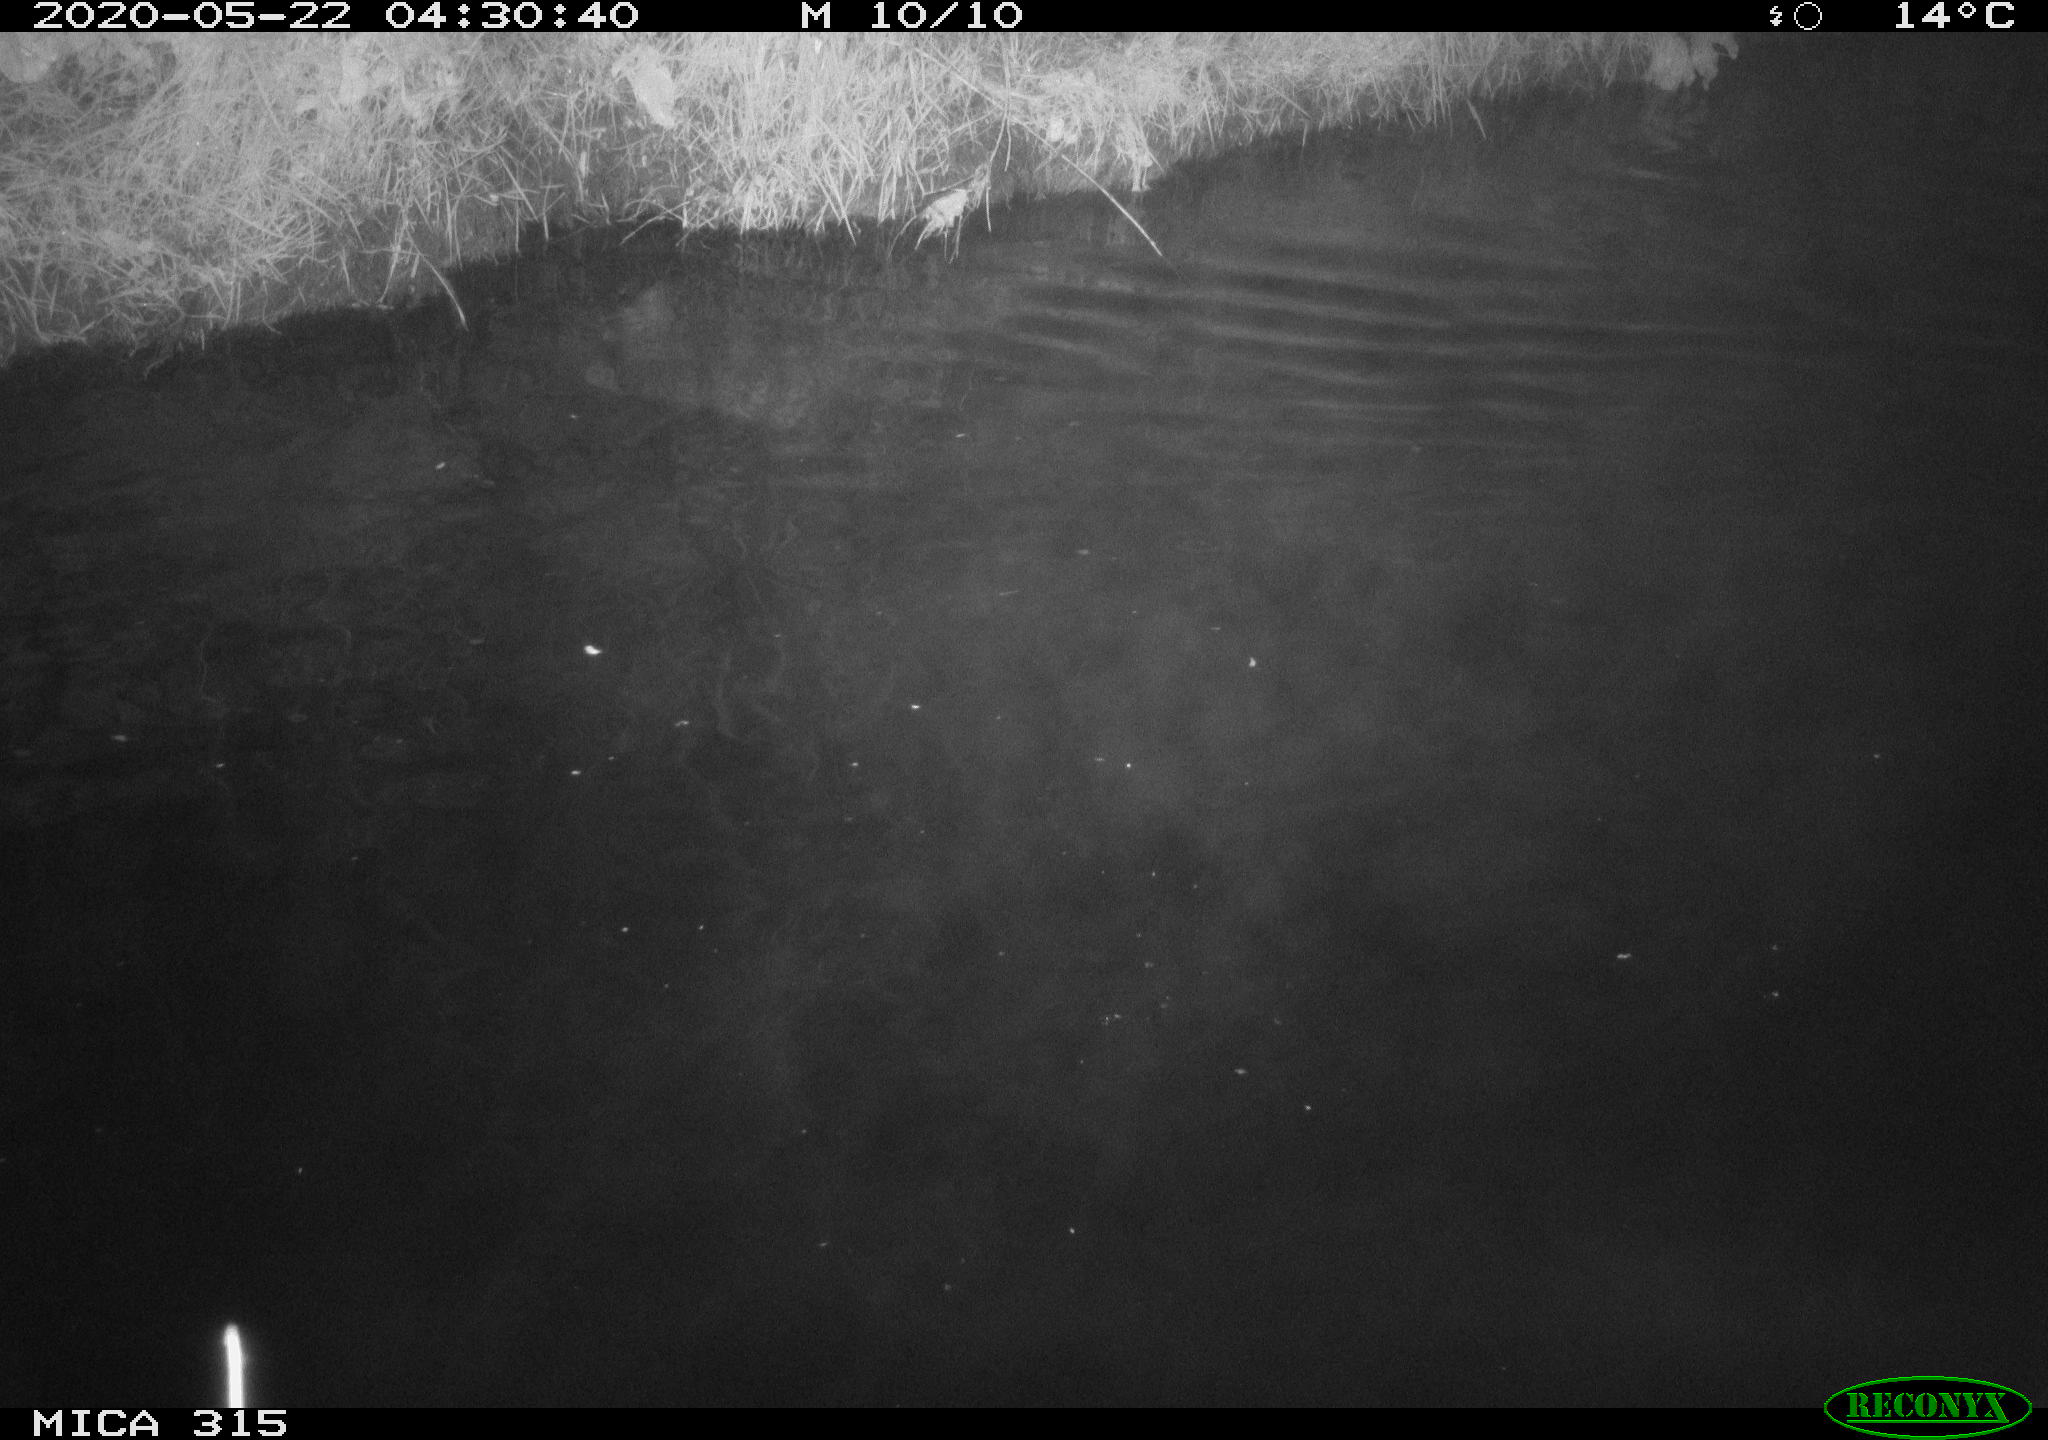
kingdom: Animalia
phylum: Chordata
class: Aves
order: Anseriformes
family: Anatidae
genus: Anas
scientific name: Anas platyrhynchos
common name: Mallard
